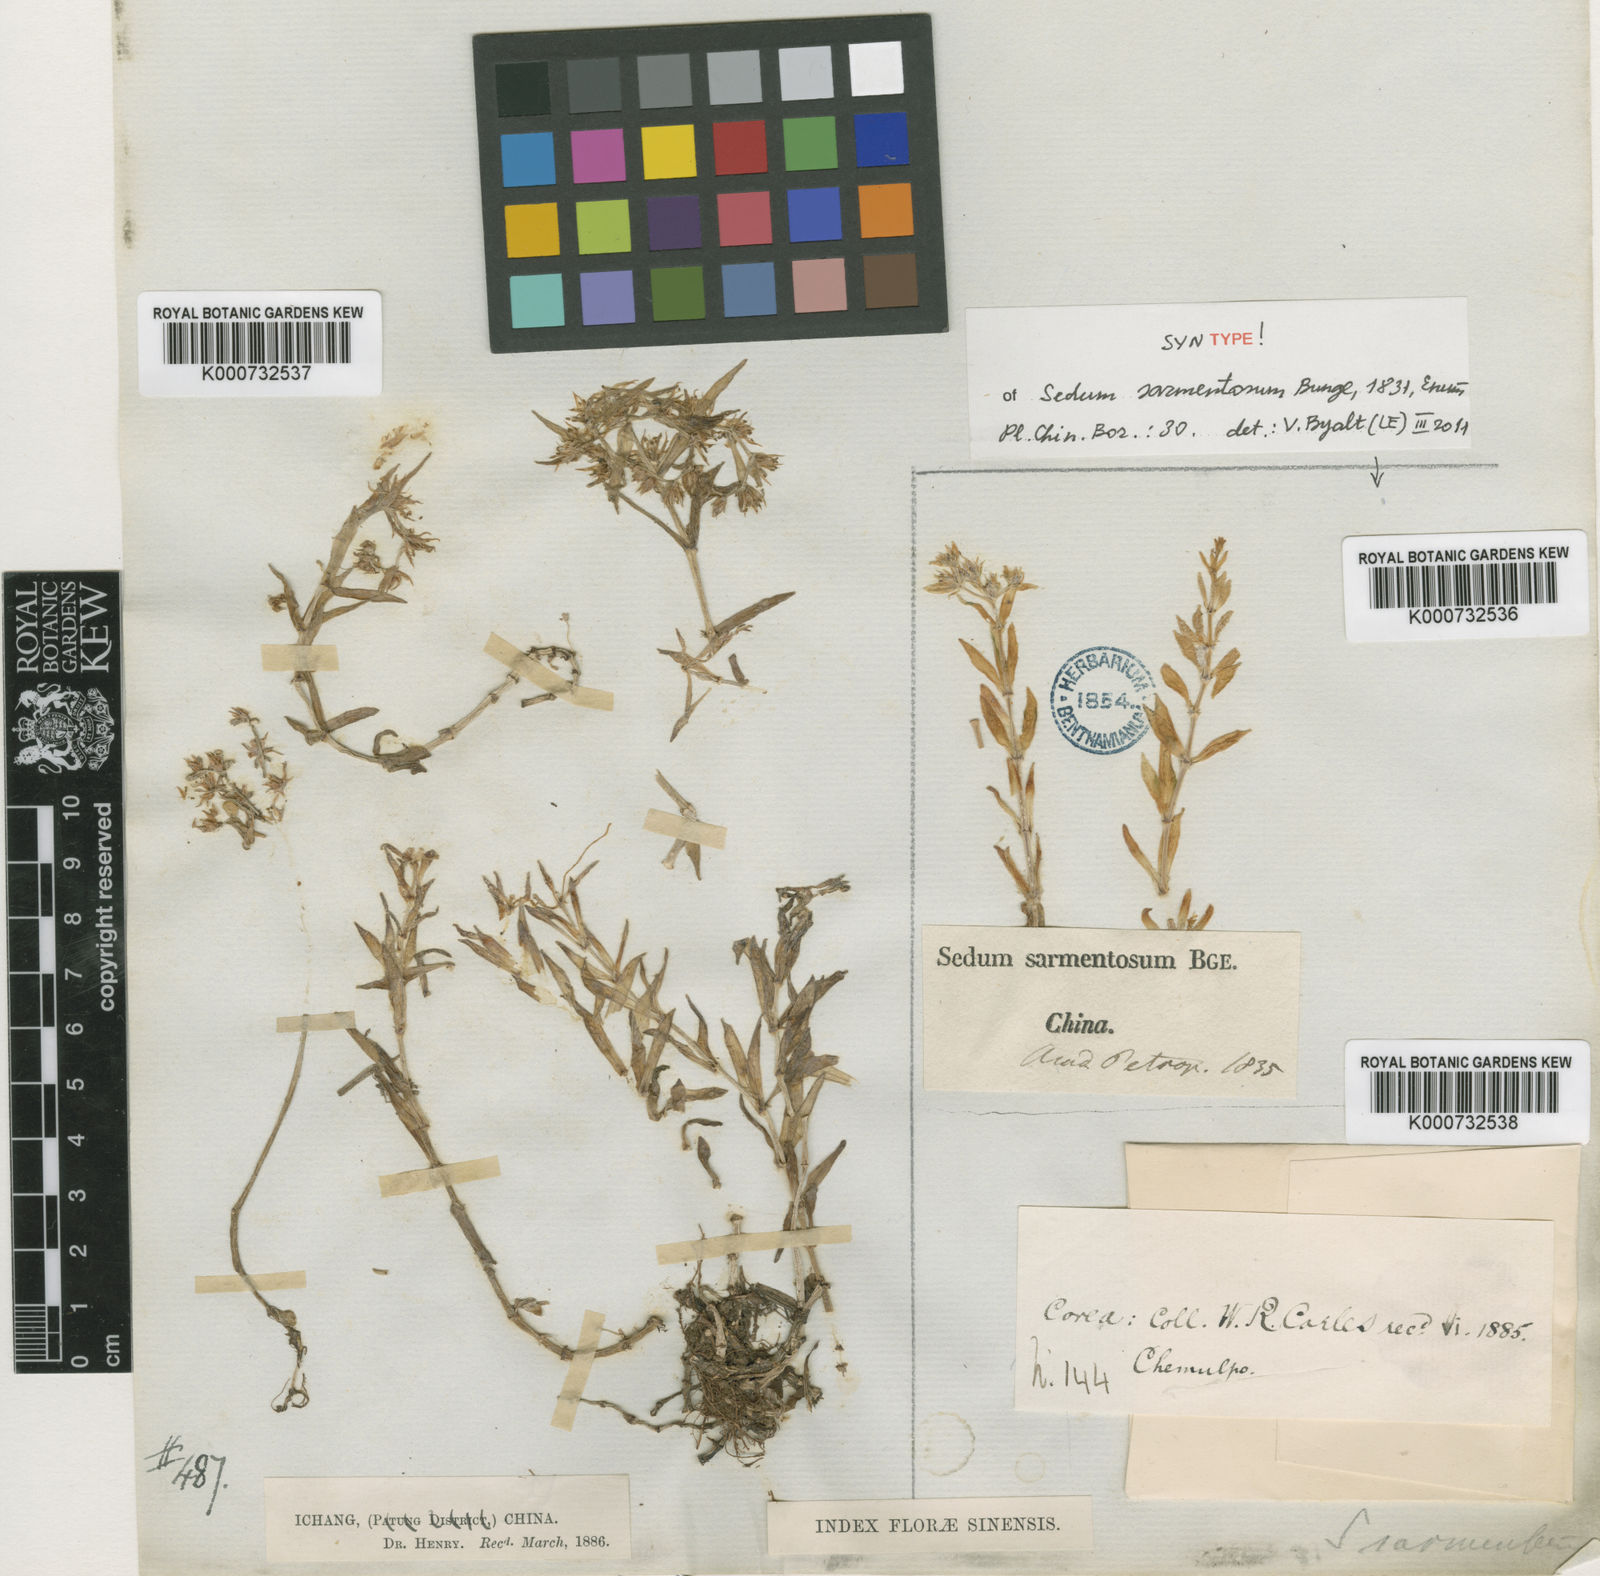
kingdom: Plantae
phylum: Tracheophyta
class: Magnoliopsida
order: Saxifragales
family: Crassulaceae
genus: Sedum
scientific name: Sedum sarmentosum
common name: Stringy stonecrop
